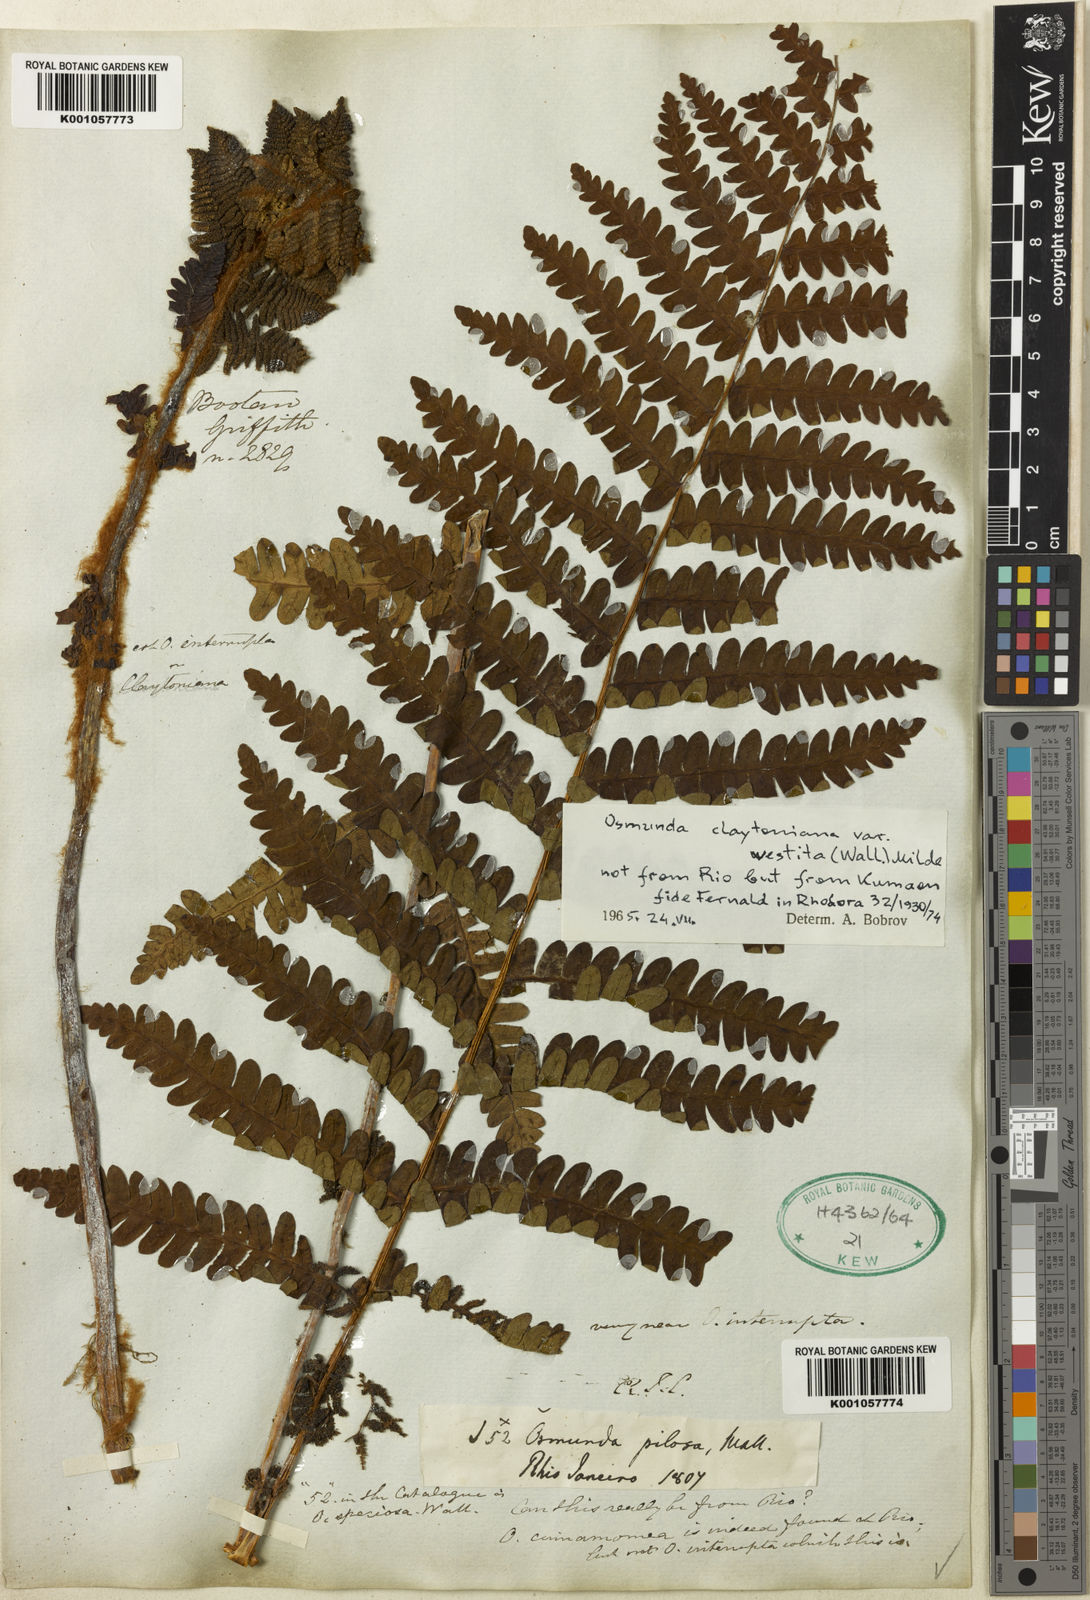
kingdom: Plantae
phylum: Tracheophyta
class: Polypodiopsida
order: Osmundales
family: Osmundaceae
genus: Claytosmunda
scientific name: Claytosmunda claytoniana
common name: Clayton's fern
